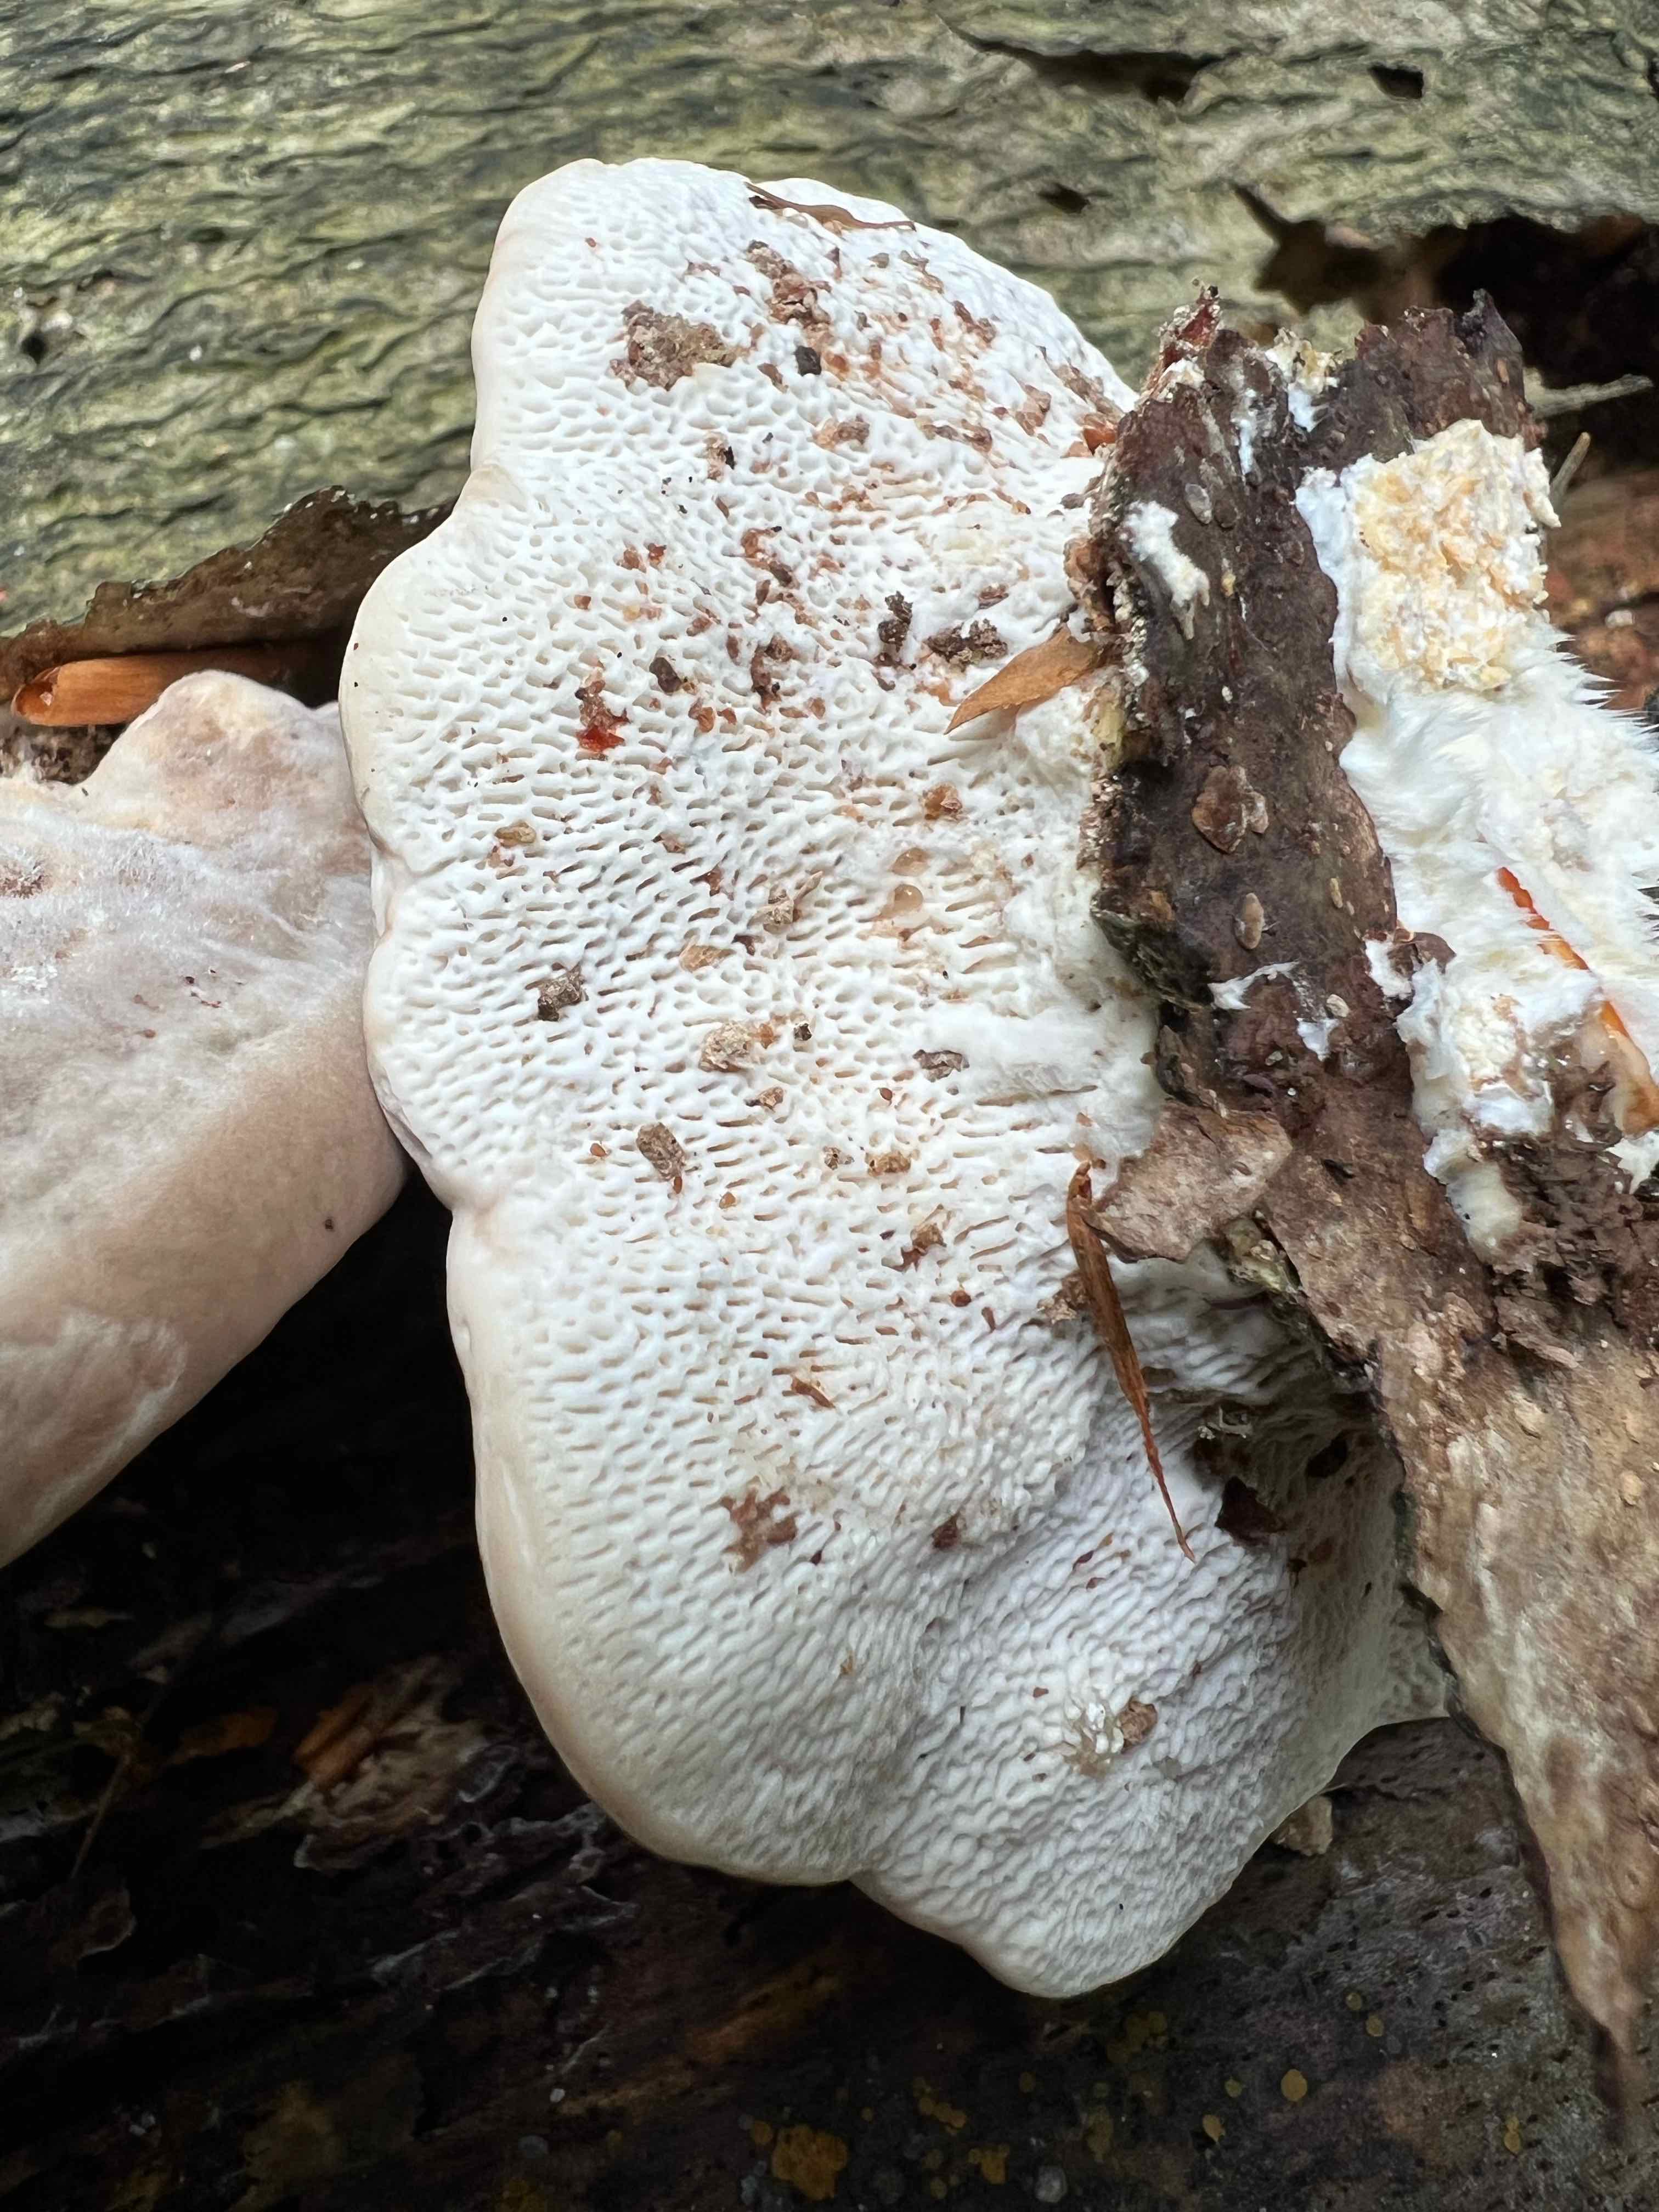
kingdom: Fungi
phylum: Basidiomycota
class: Agaricomycetes
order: Polyporales
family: Polyporaceae
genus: Trametes
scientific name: Trametes gibbosa
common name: puklet læderporesvamp
